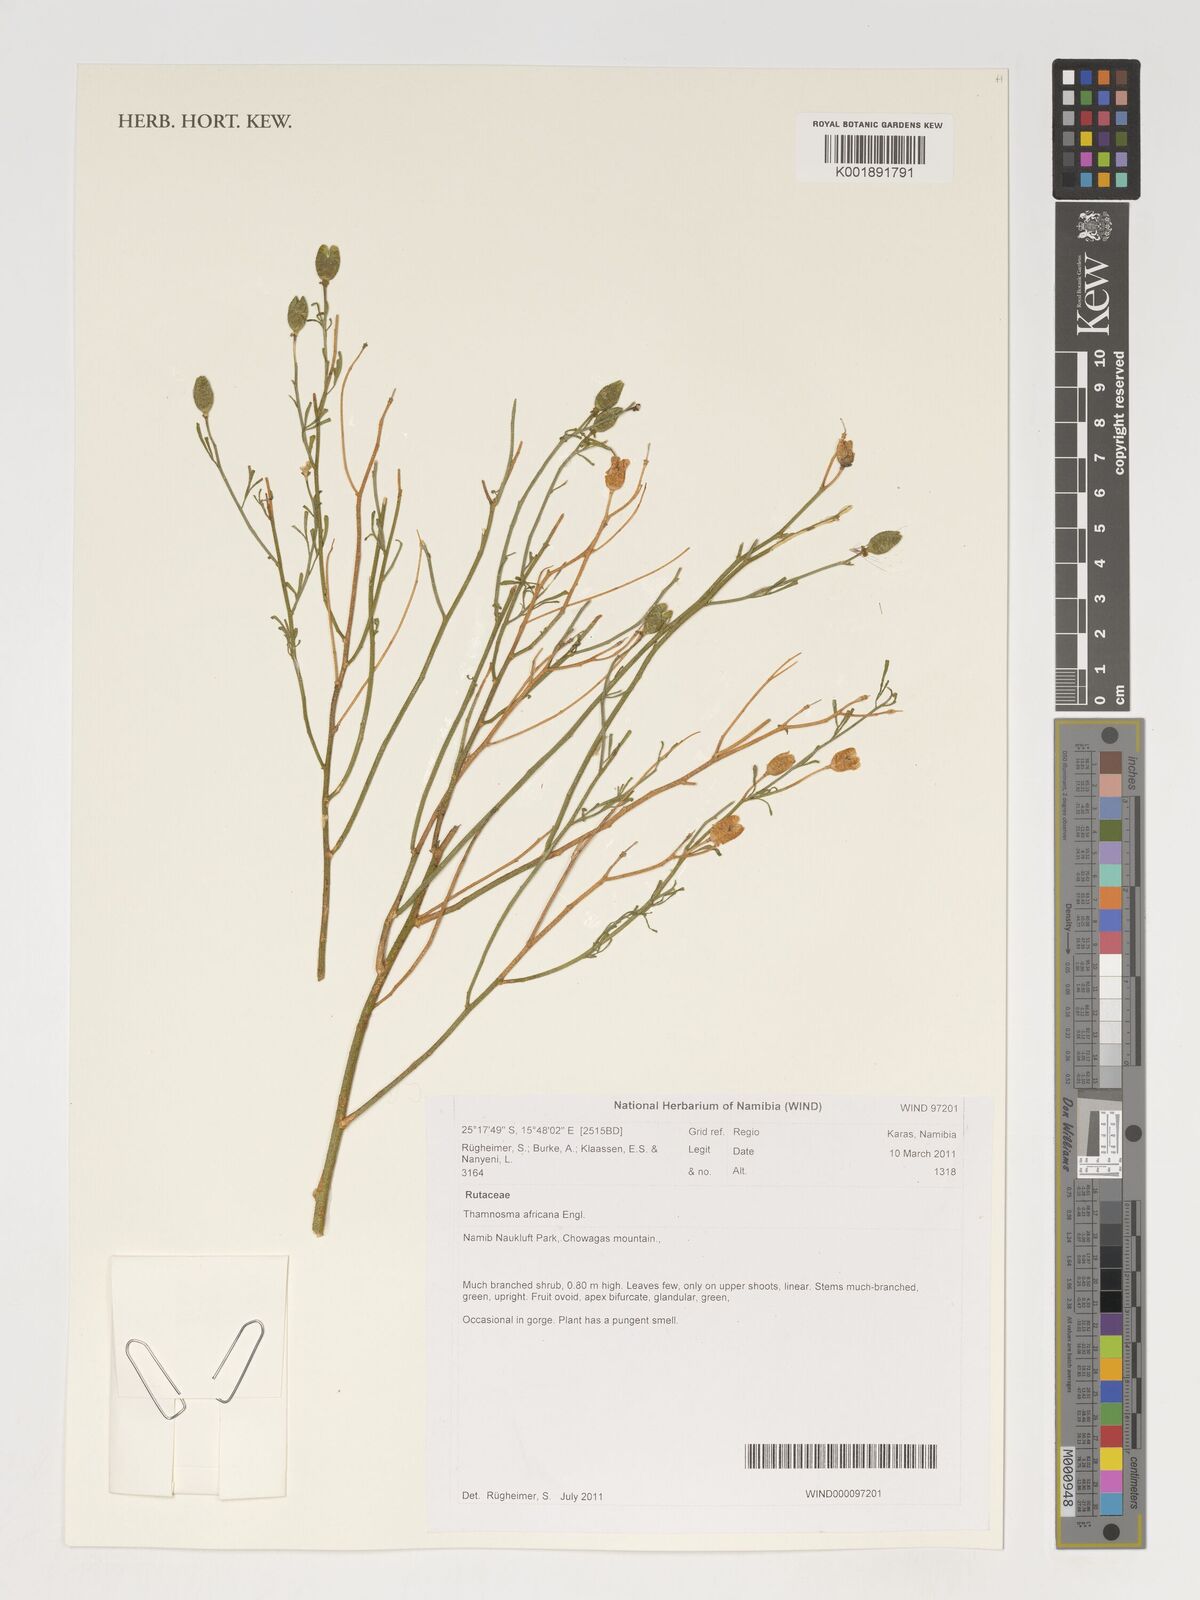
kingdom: Plantae
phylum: Tracheophyta
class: Magnoliopsida
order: Sapindales
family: Rutaceae
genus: Thamnosma
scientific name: Thamnosma africana
